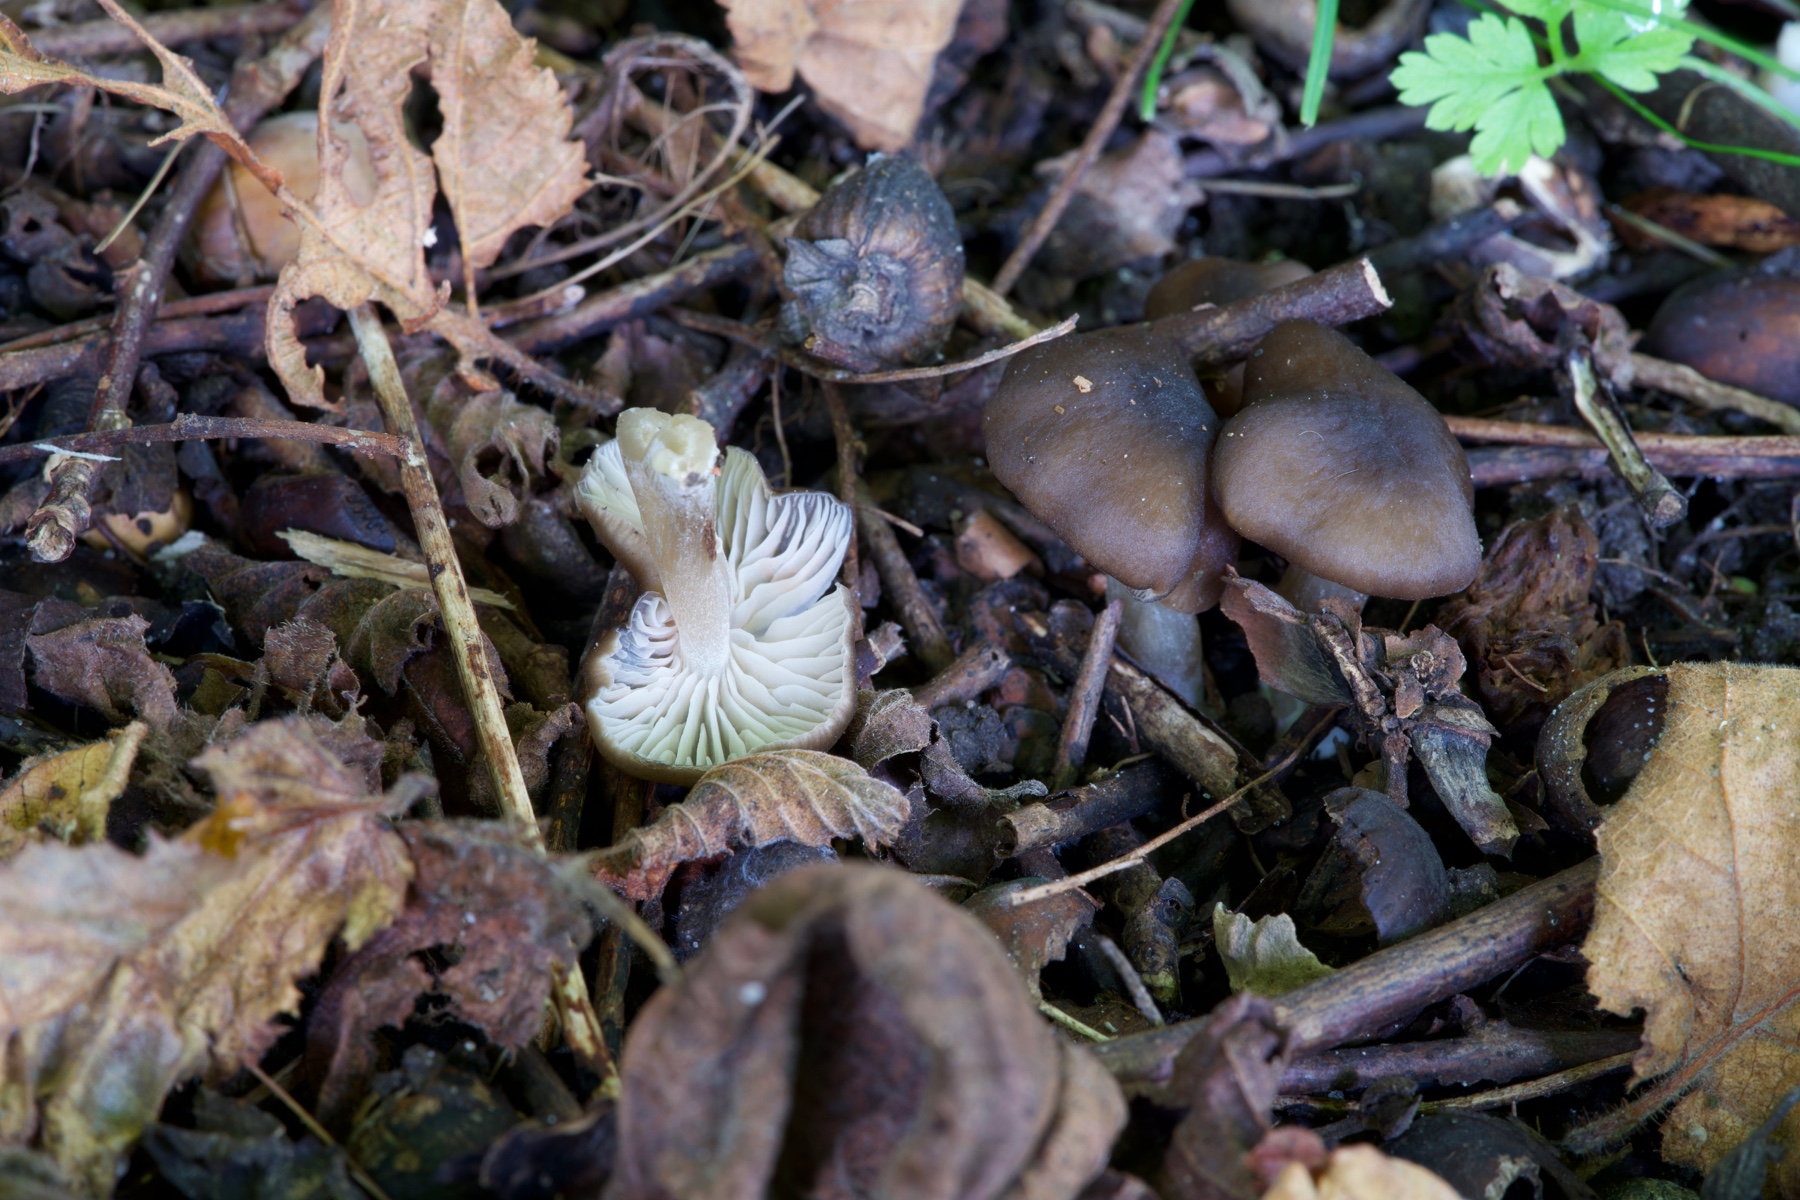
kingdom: Fungi
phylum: Basidiomycota
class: Agaricomycetes
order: Agaricales
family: Entolomataceae
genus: Entoloma
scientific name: Entoloma sordidulum
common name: smudsig rødblad
